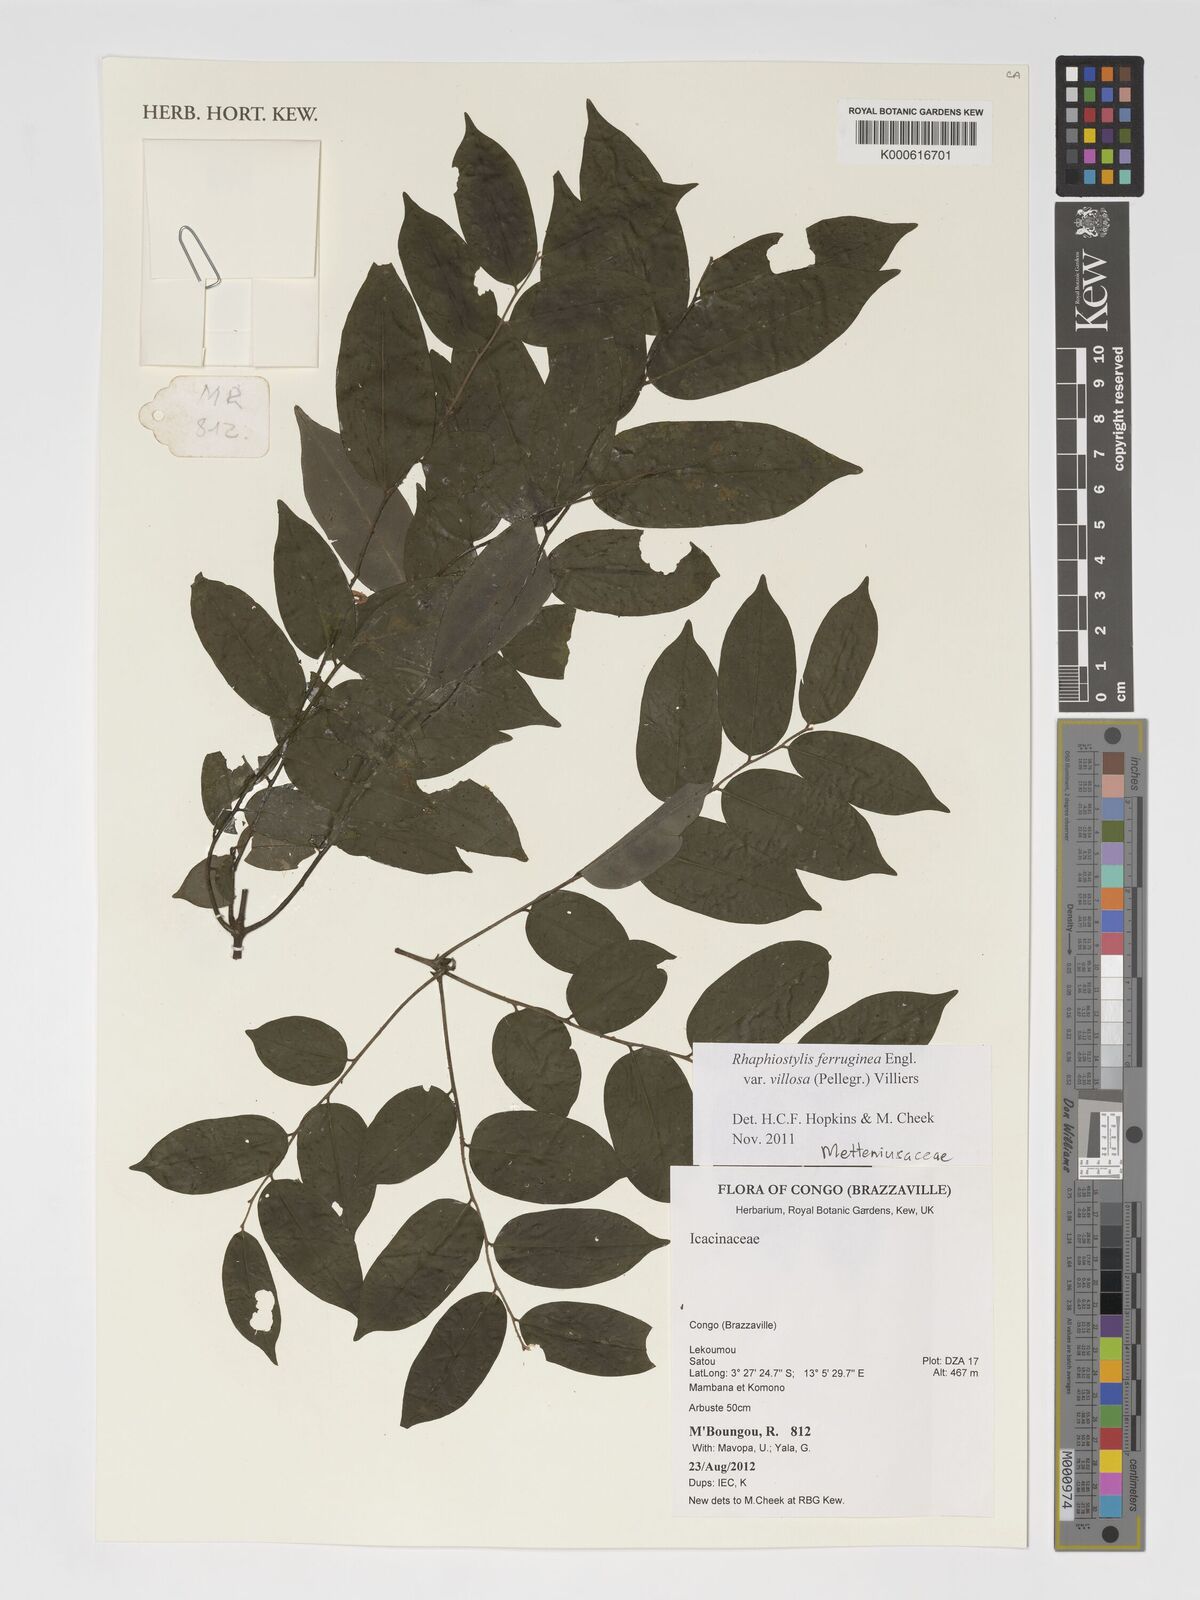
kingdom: Plantae
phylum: Tracheophyta
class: Magnoliopsida
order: Metteniusales
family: Metteniusaceae
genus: Rhaphiostylis
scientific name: Rhaphiostylis ferruginea
